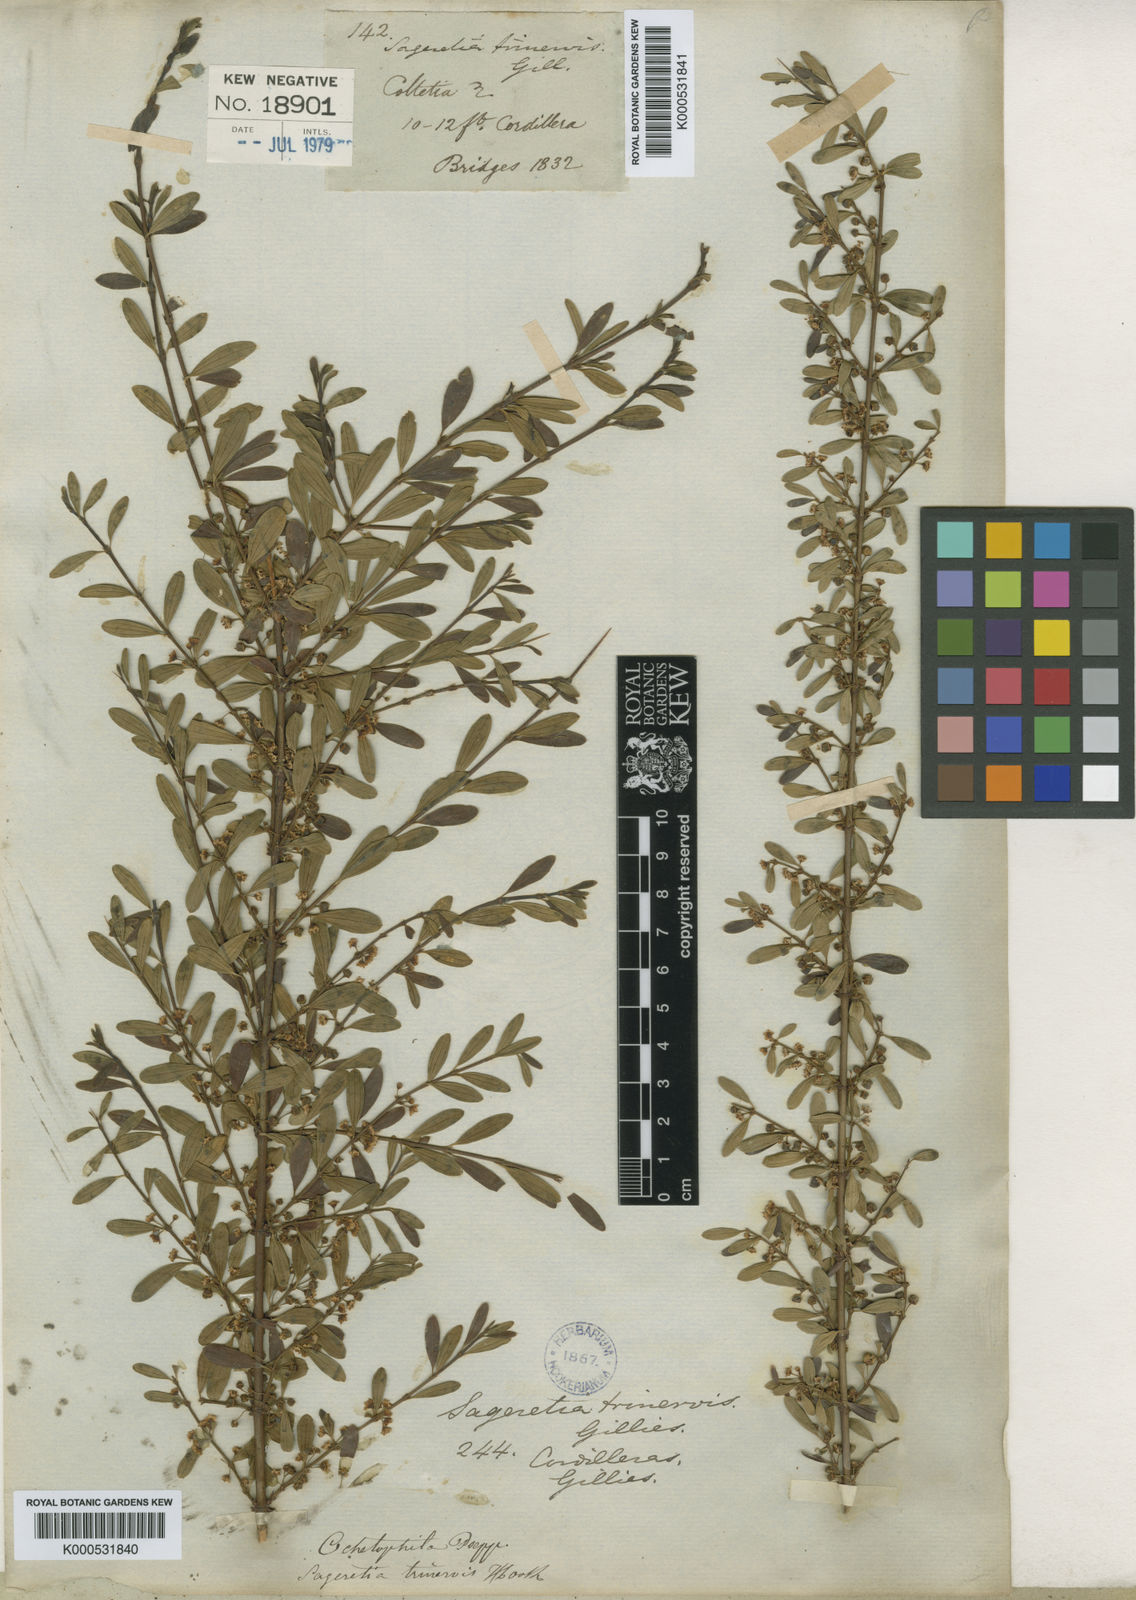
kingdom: Plantae
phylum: Tracheophyta
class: Magnoliopsida
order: Rosales
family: Rhamnaceae
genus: Ochetophila
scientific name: Ochetophila trinervis
